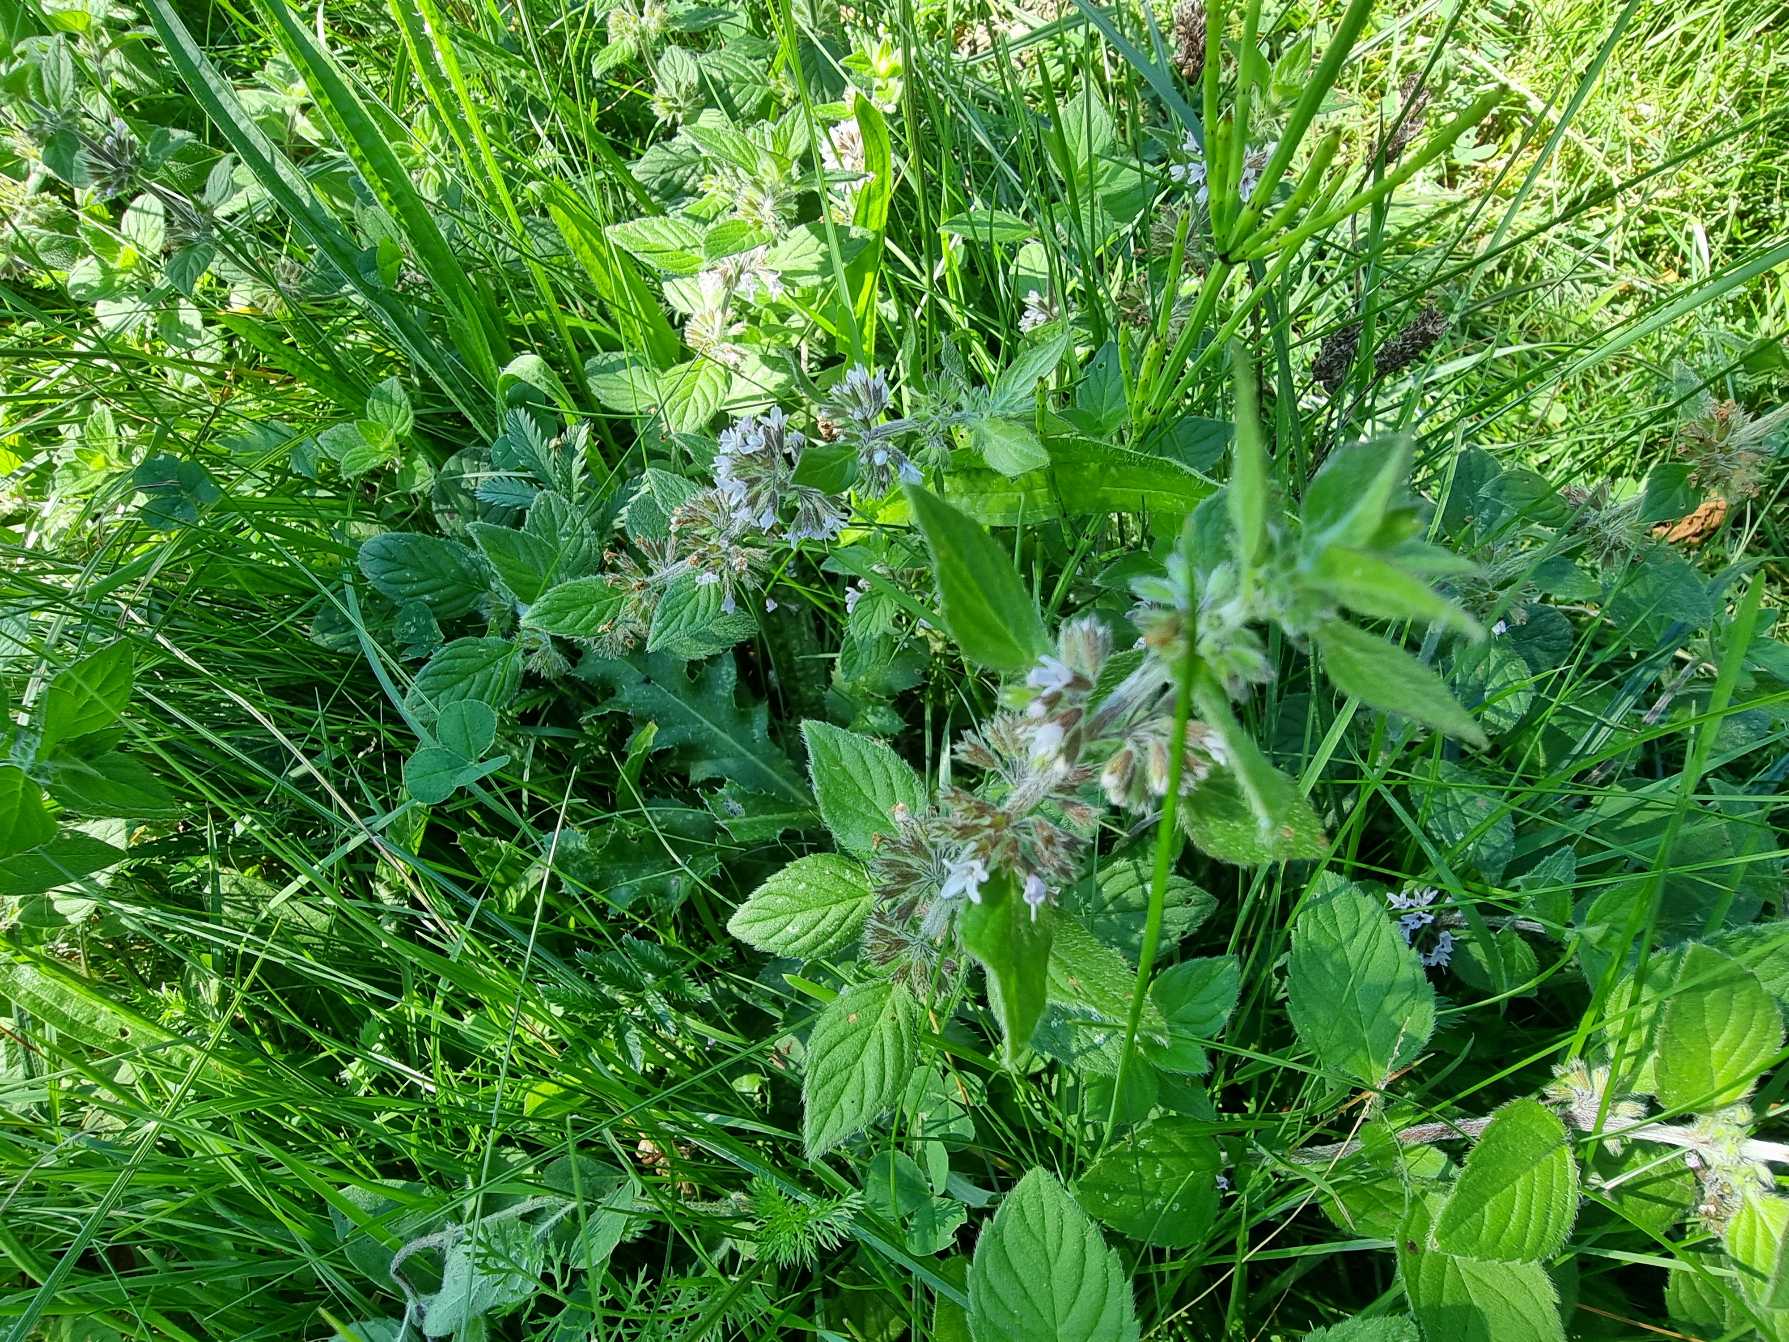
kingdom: Plantae
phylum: Tracheophyta
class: Magnoliopsida
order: Lamiales
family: Lamiaceae
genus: Mentha
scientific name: Mentha verticillata
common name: Krans-mynte
